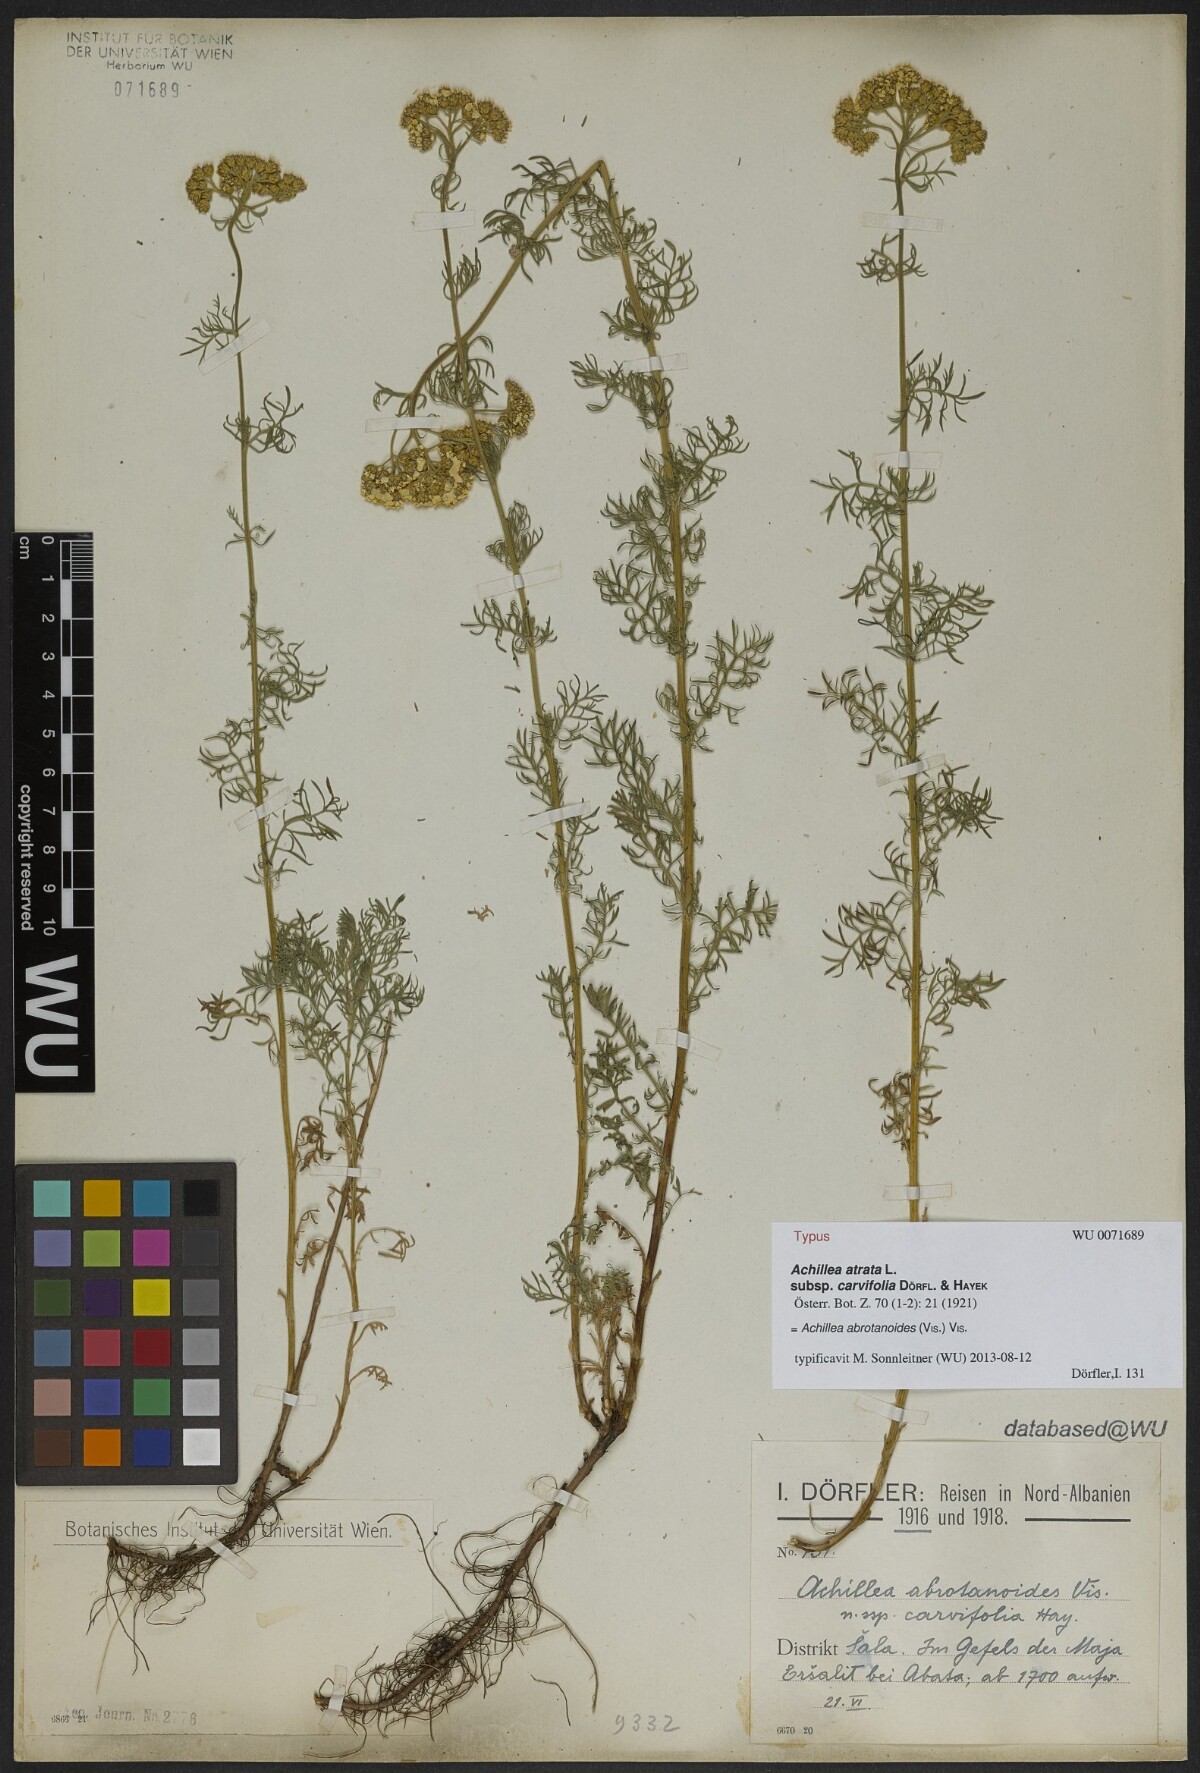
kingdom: Plantae
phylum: Tracheophyta
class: Magnoliopsida
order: Asterales
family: Asteraceae
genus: Achillea
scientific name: Achillea abrotanoides
